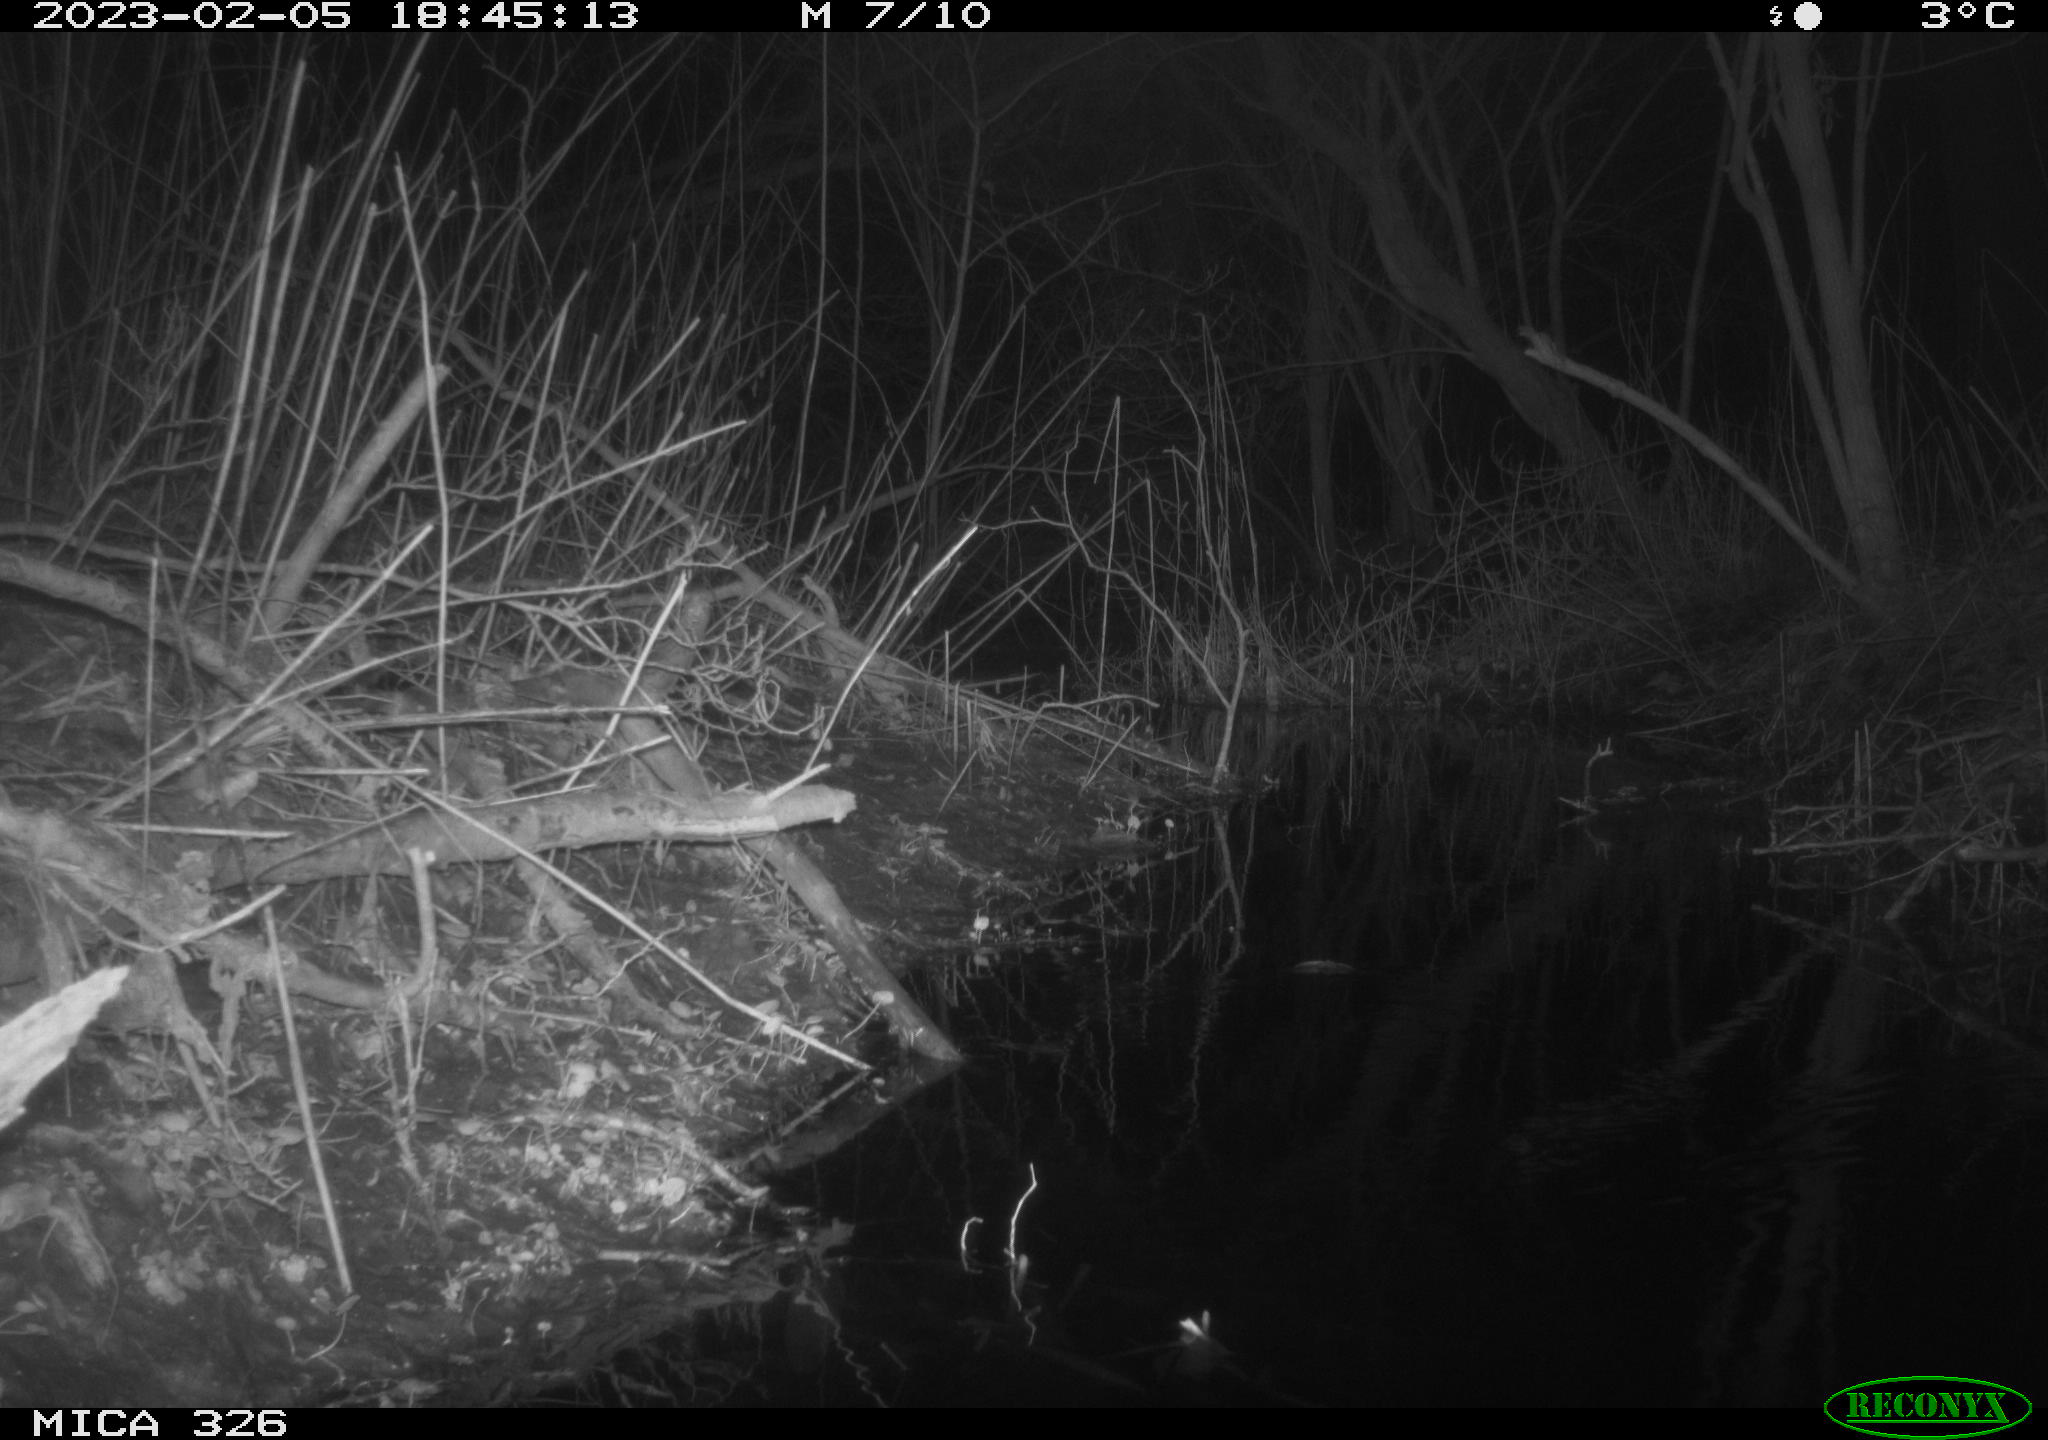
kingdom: Animalia
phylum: Chordata
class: Mammalia
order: Carnivora
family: Canidae
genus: Vulpes
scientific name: Vulpes vulpes
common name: Red fox
